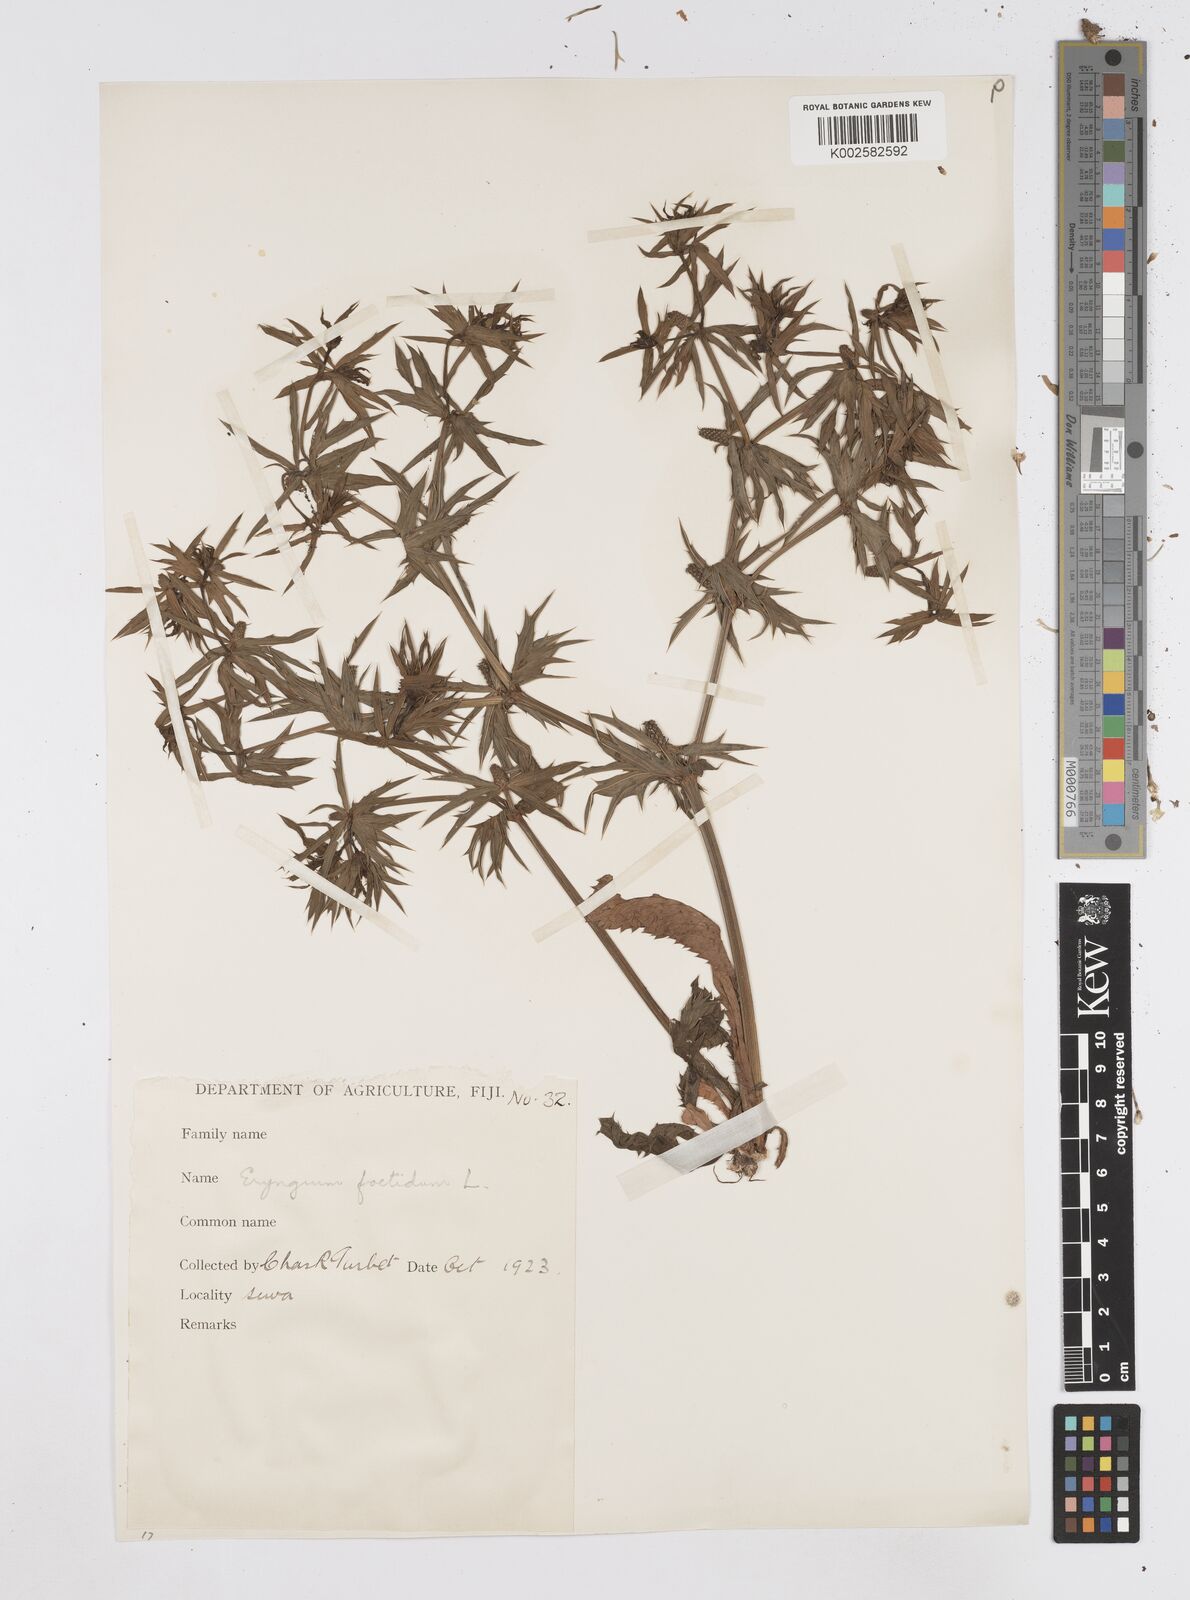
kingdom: Plantae
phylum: Tracheophyta
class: Magnoliopsida
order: Apiales
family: Apiaceae
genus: Eryngium
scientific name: Eryngium foetidum
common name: Fitweed
